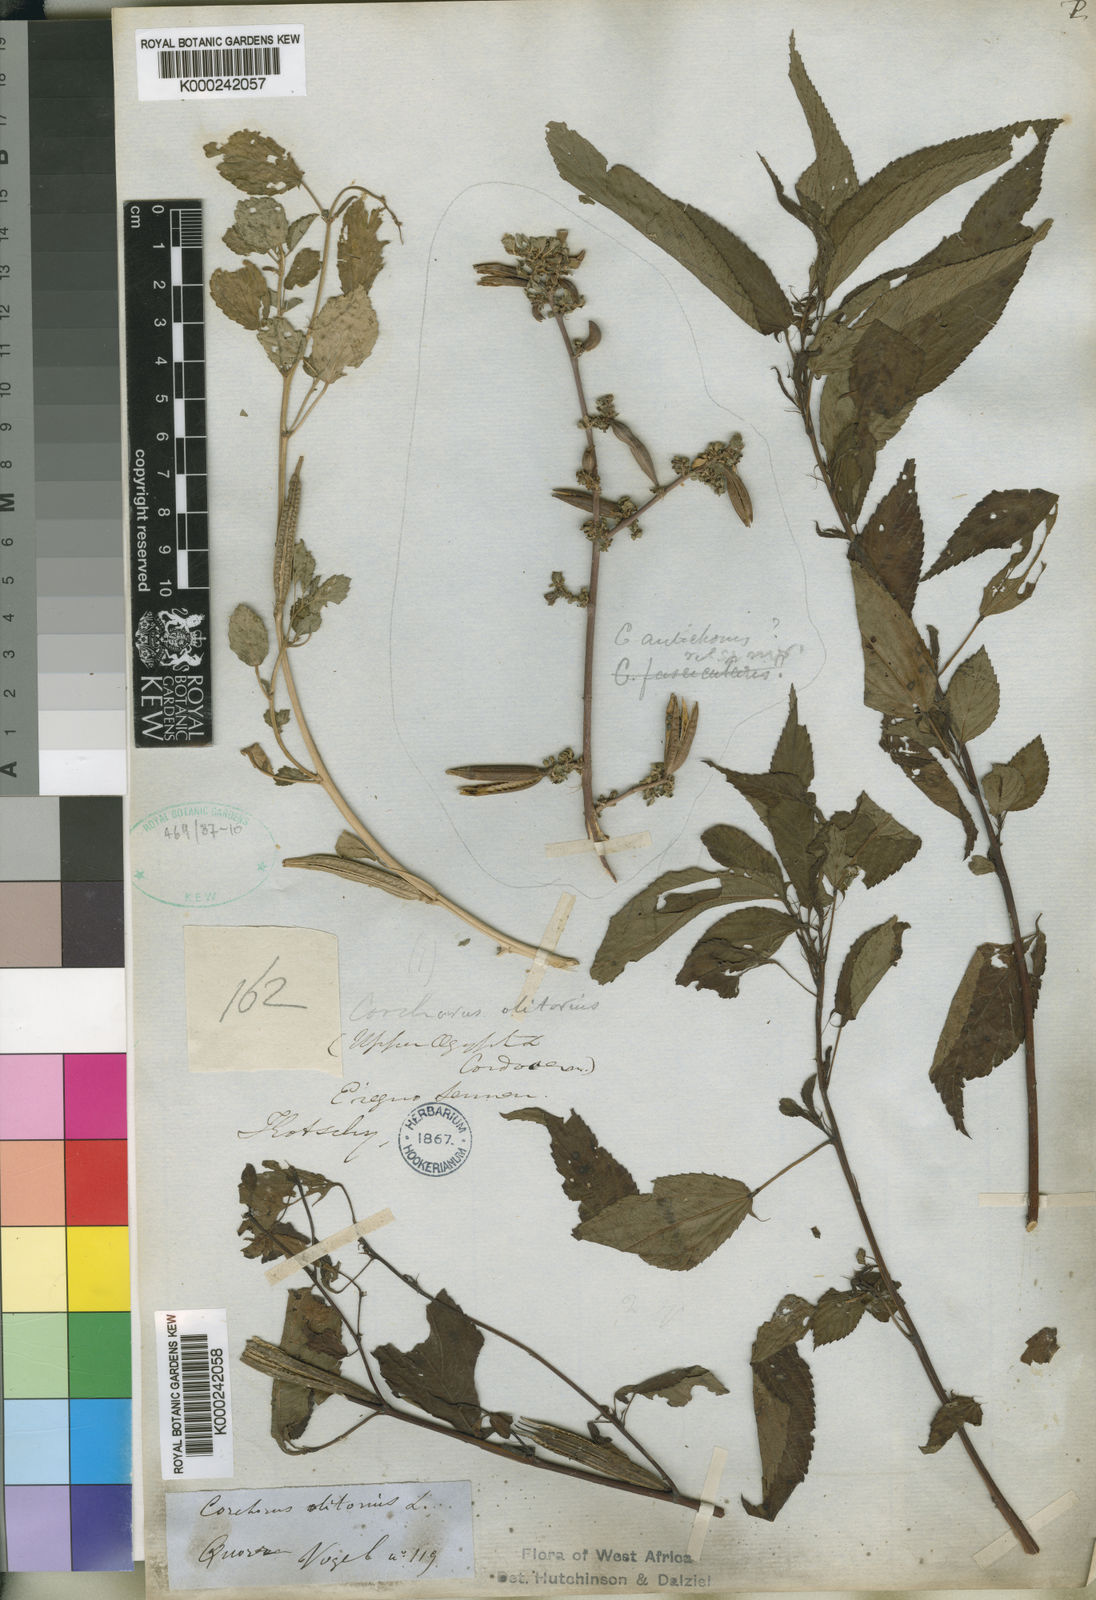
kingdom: Plantae
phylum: Tracheophyta
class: Magnoliopsida
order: Malvales
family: Malvaceae
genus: Corchorus
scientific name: Corchorus olitorius
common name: Tossa jute
